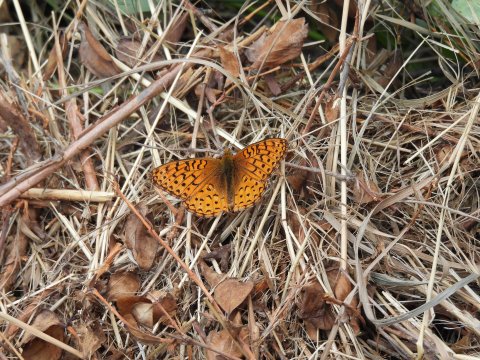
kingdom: Animalia
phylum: Arthropoda
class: Insecta
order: Lepidoptera
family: Nymphalidae
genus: Speyeria
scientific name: Speyeria aphrodite
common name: Aphrodite Fritillary
